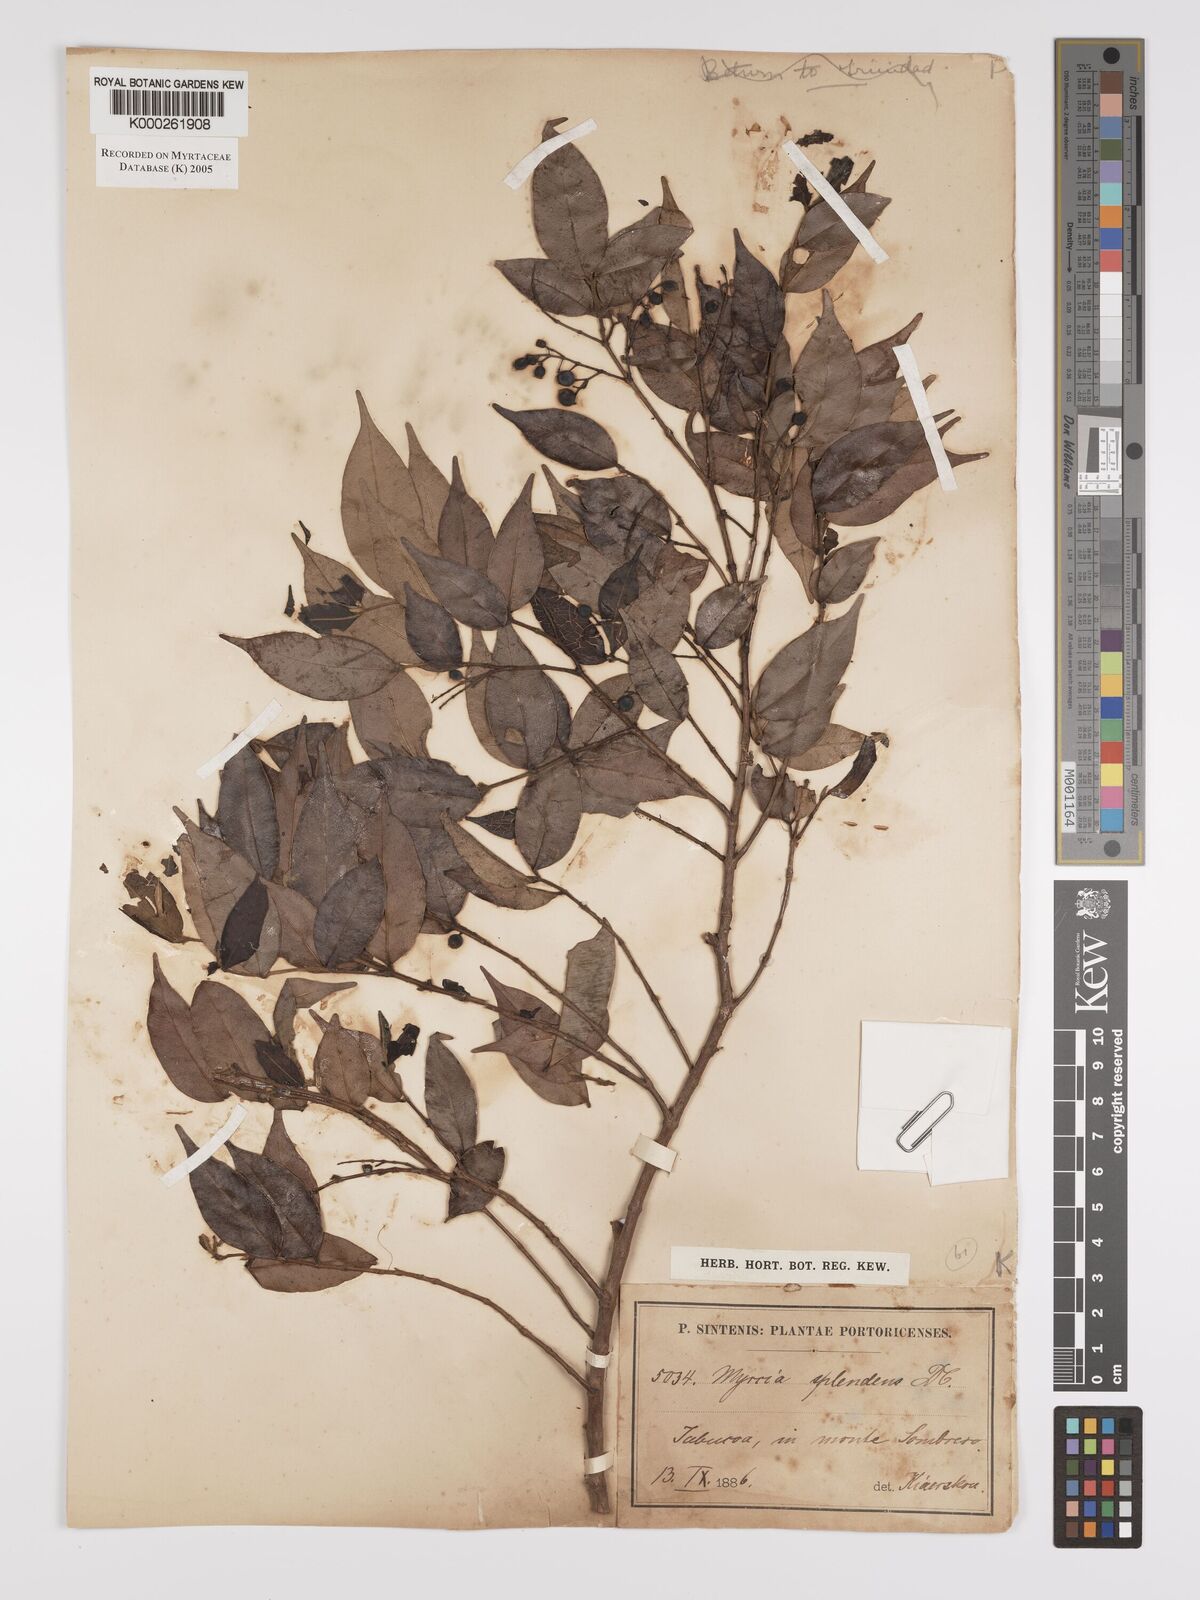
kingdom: Plantae
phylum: Tracheophyta
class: Magnoliopsida
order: Myrtales
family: Myrtaceae
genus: Myrcia
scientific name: Myrcia splendens
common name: Surinam cherry
